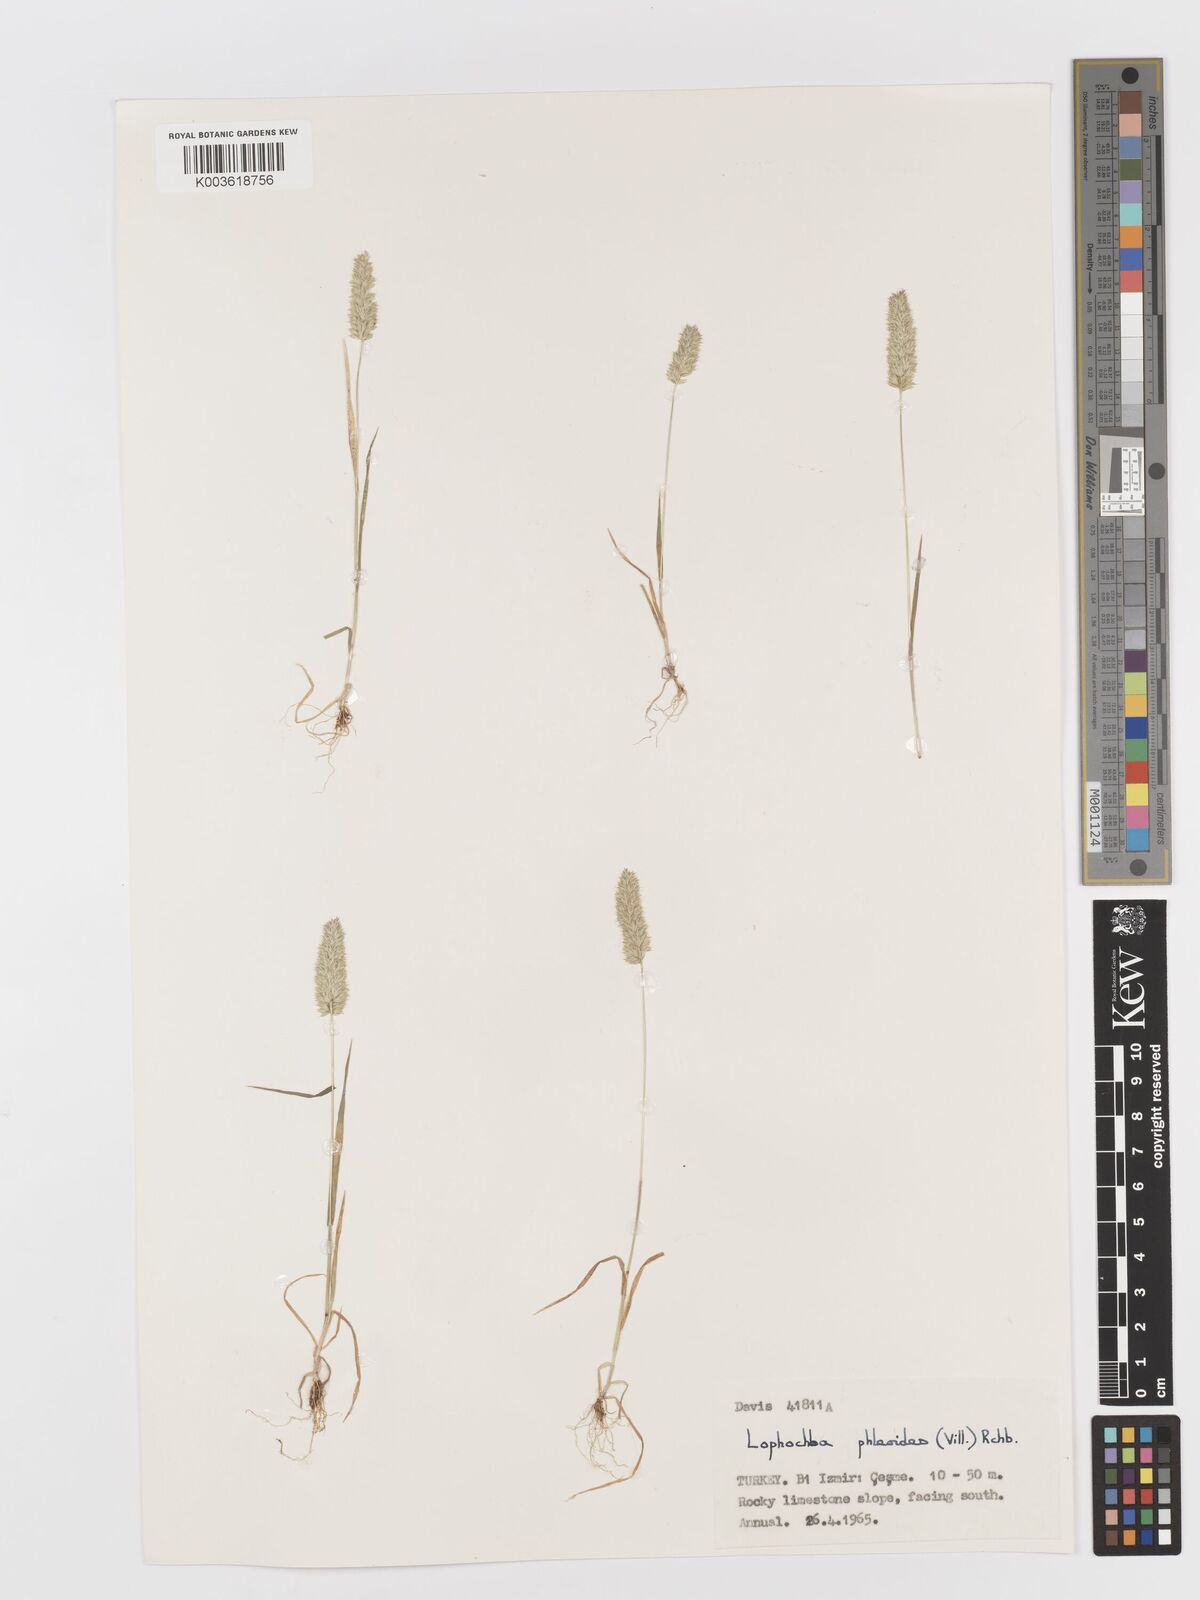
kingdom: Plantae
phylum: Tracheophyta
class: Liliopsida
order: Poales
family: Poaceae
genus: Rostraria
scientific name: Rostraria cristata
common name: Mediterranean hair-grass
